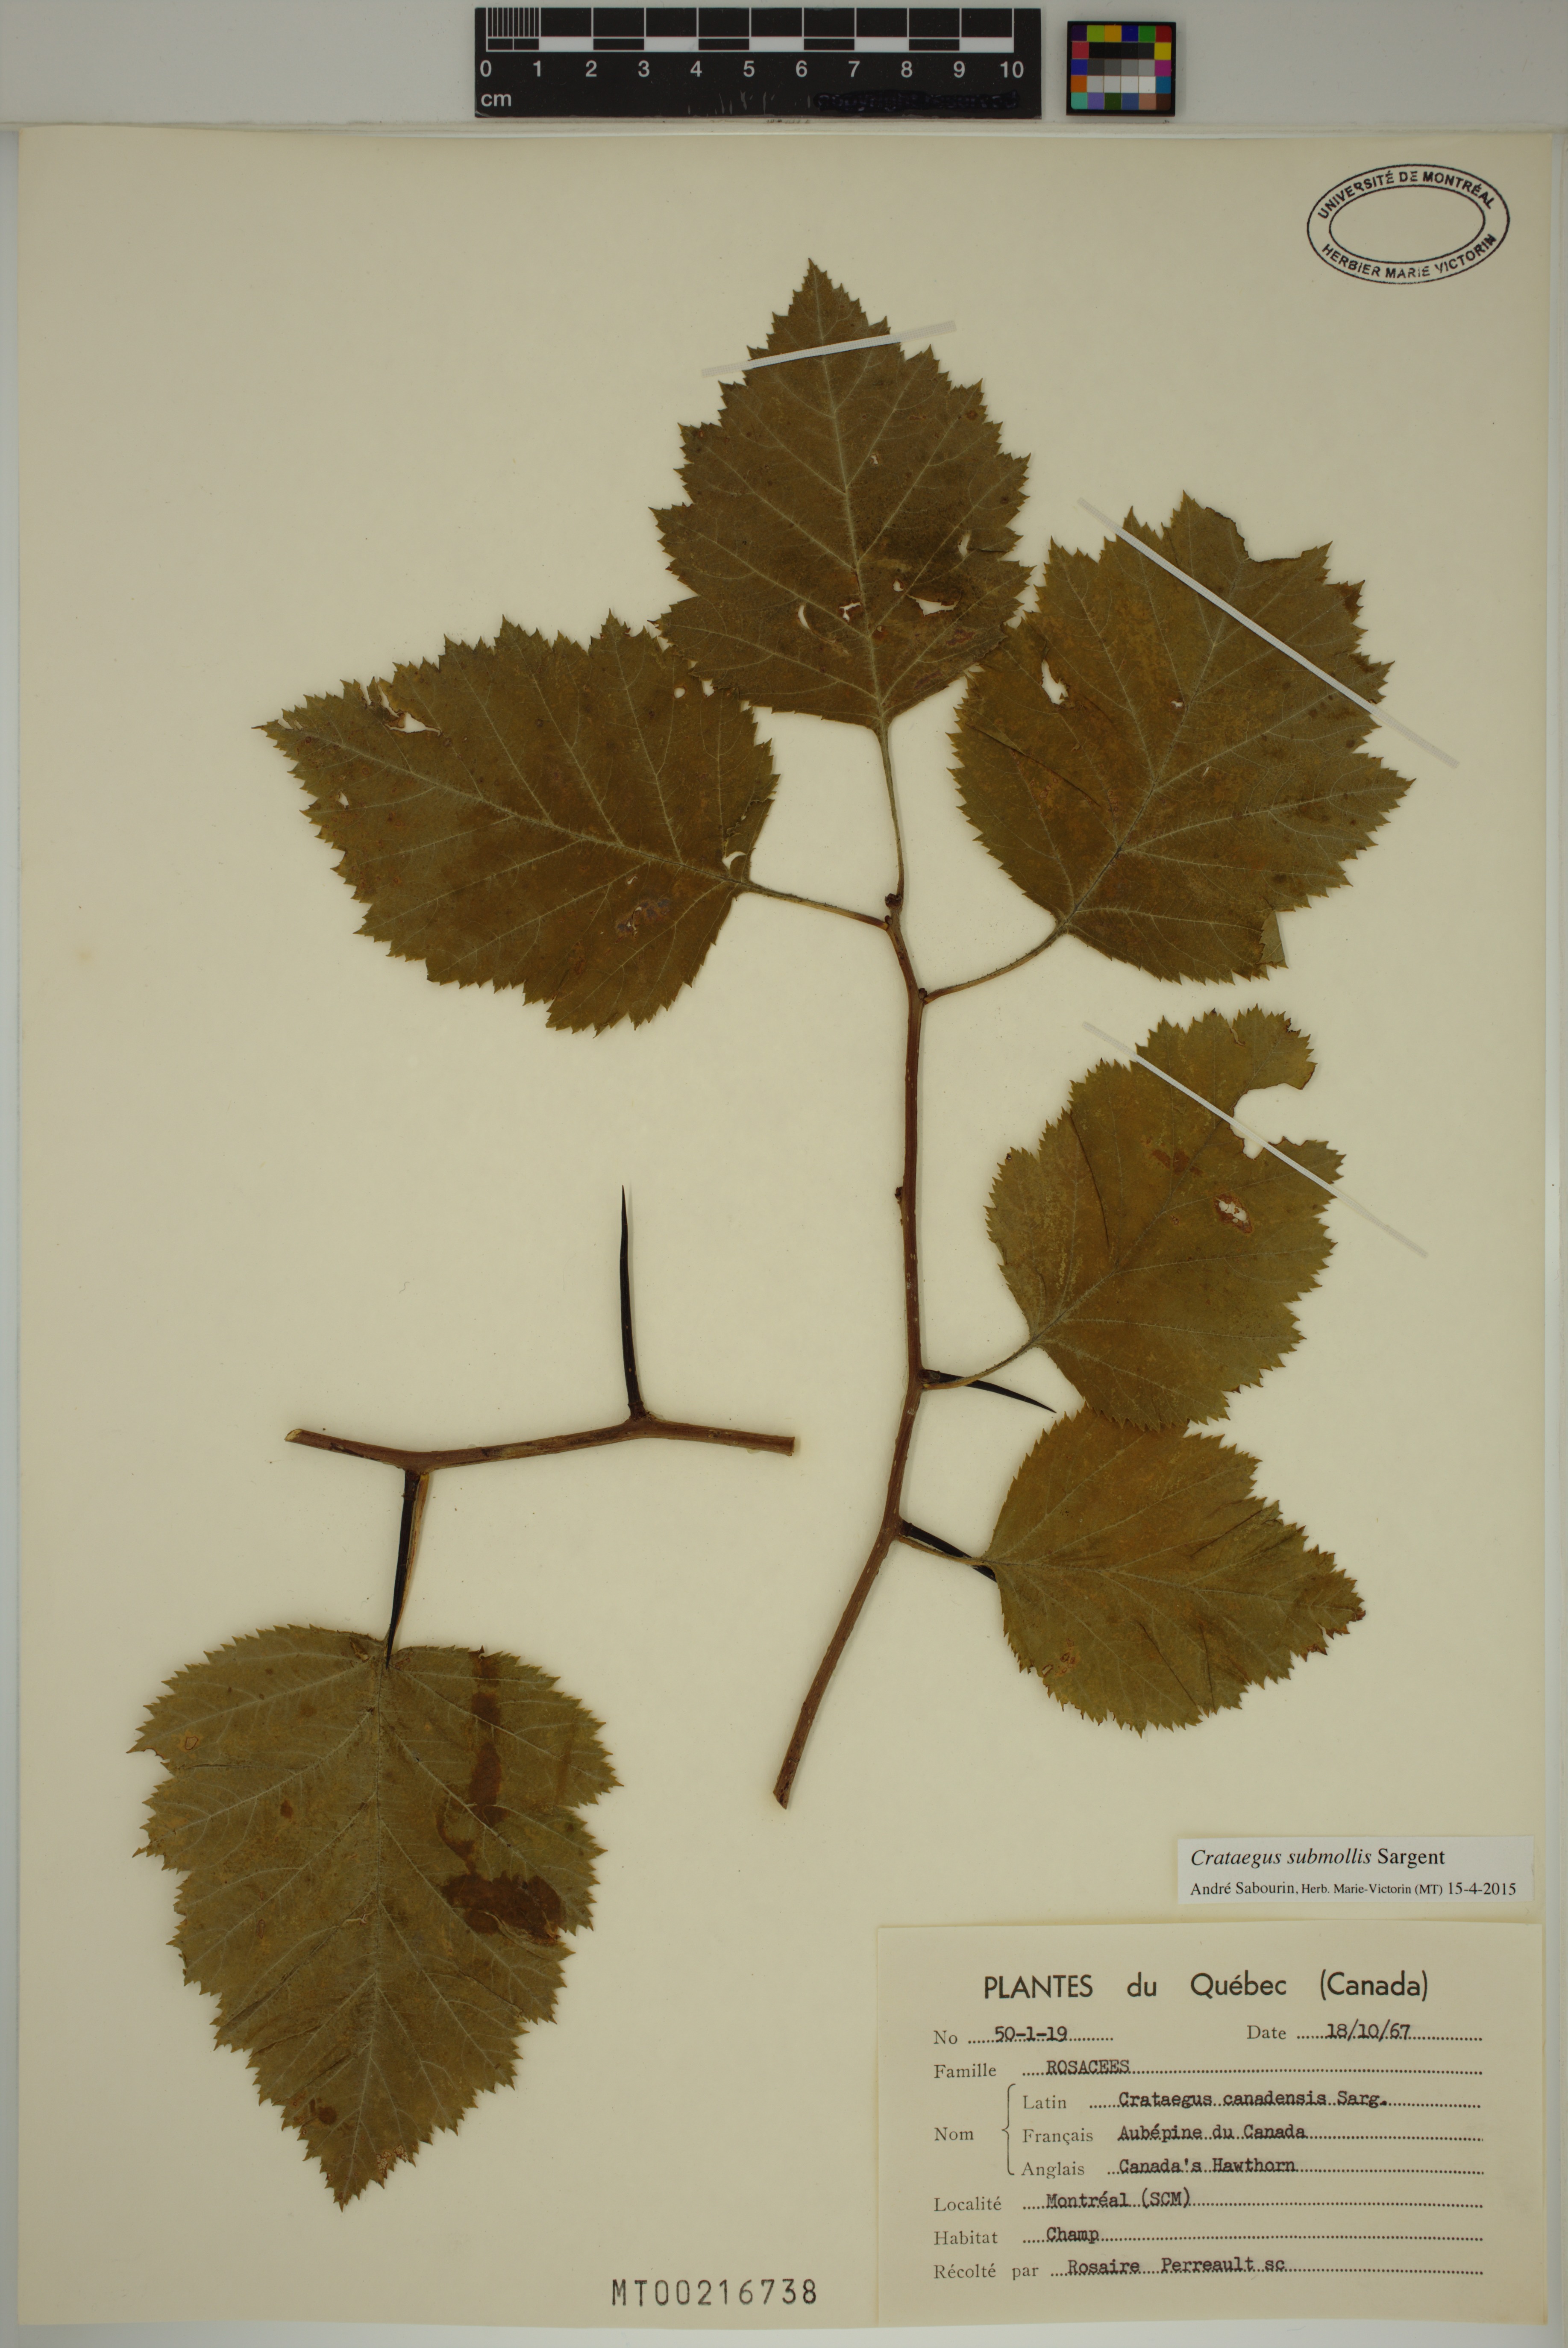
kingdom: Plantae
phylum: Tracheophyta
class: Magnoliopsida
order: Rosales
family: Rosaceae
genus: Crataegus
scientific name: Crataegus submollis
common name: Hairy cockspurthorn
